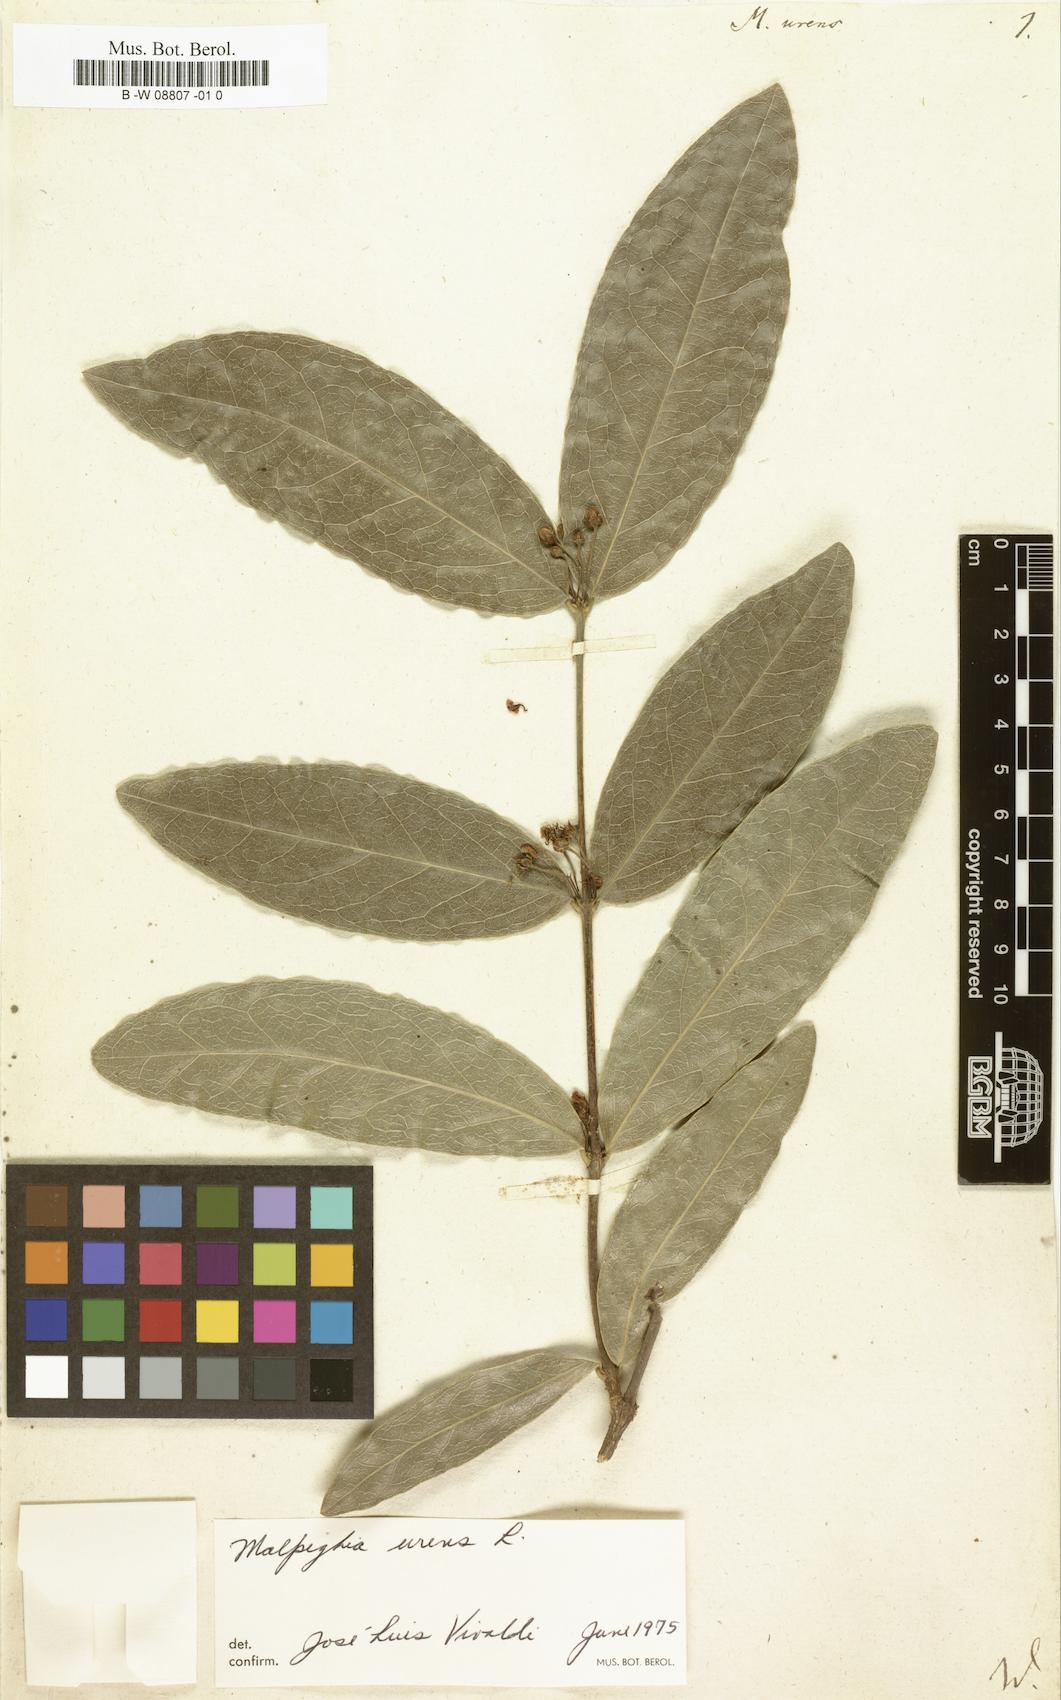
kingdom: Plantae
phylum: Tracheophyta
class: Magnoliopsida
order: Malpighiales
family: Malpighiaceae
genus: Malpighia
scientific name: Malpighia urens
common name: Cow-itch-cherry
